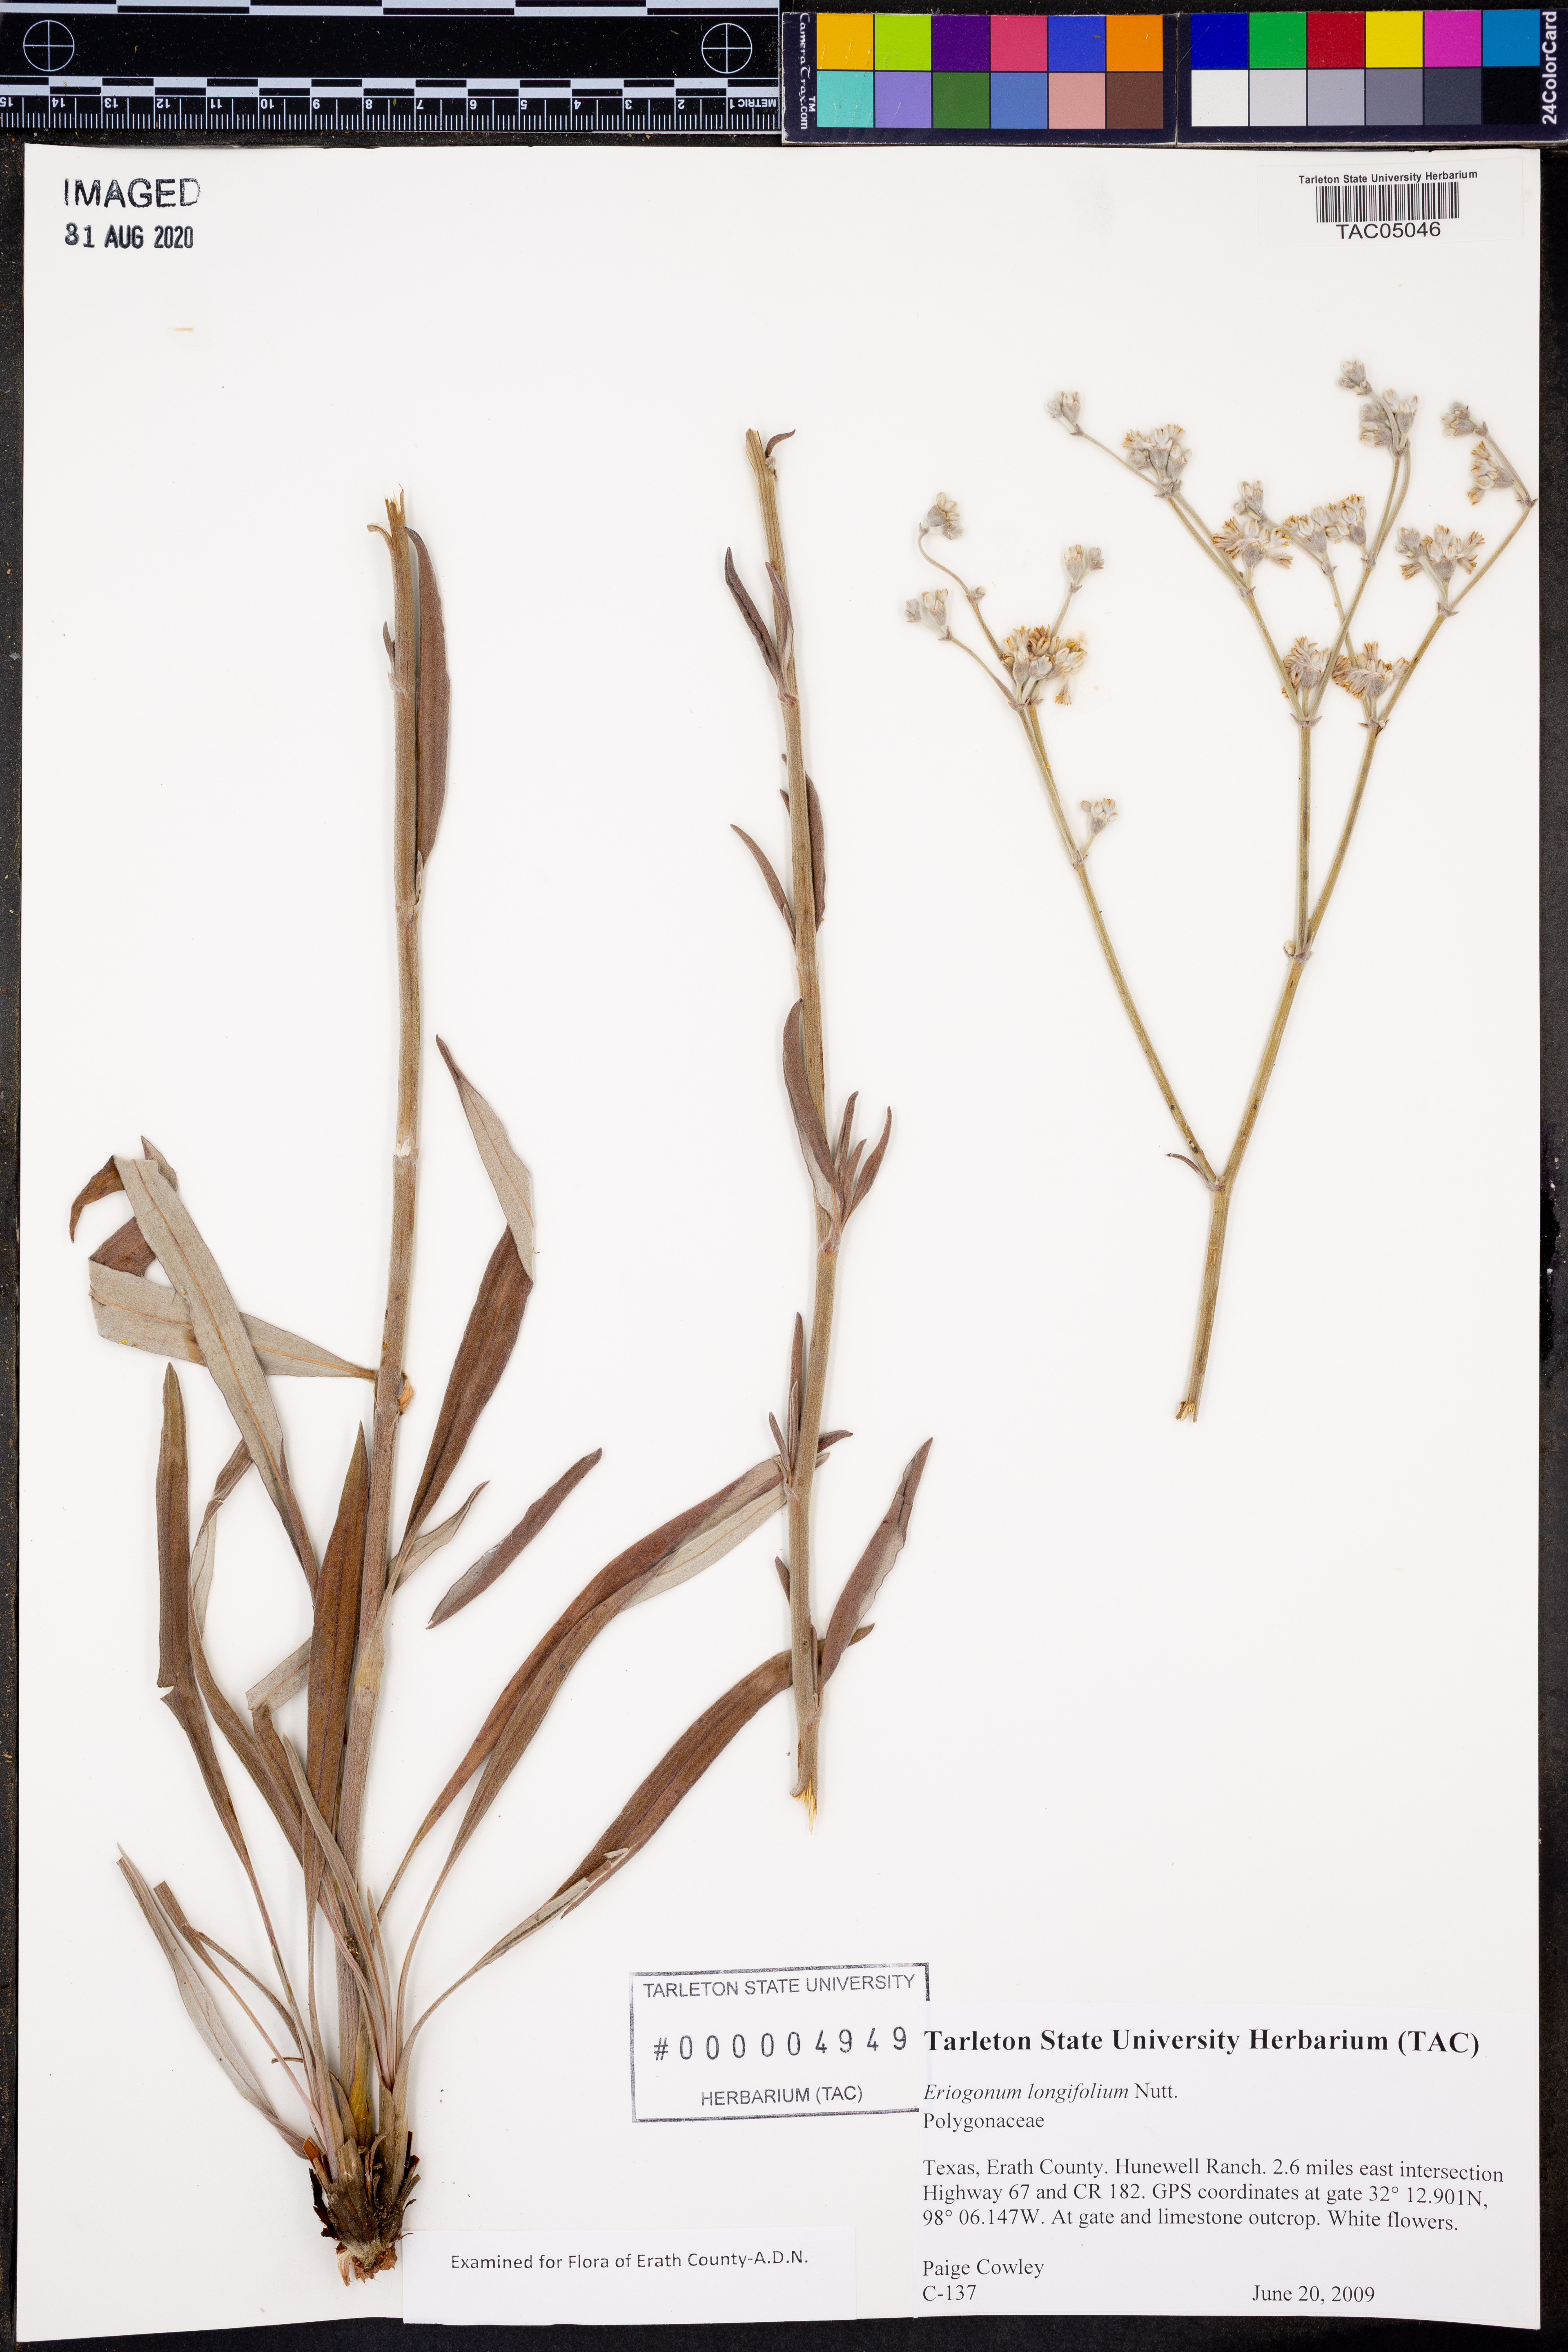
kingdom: Plantae
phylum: Tracheophyta
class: Magnoliopsida
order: Caryophyllales
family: Polygonaceae
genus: Eriogonum
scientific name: Eriogonum longifolium
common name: Longleaf wild buckwheat
